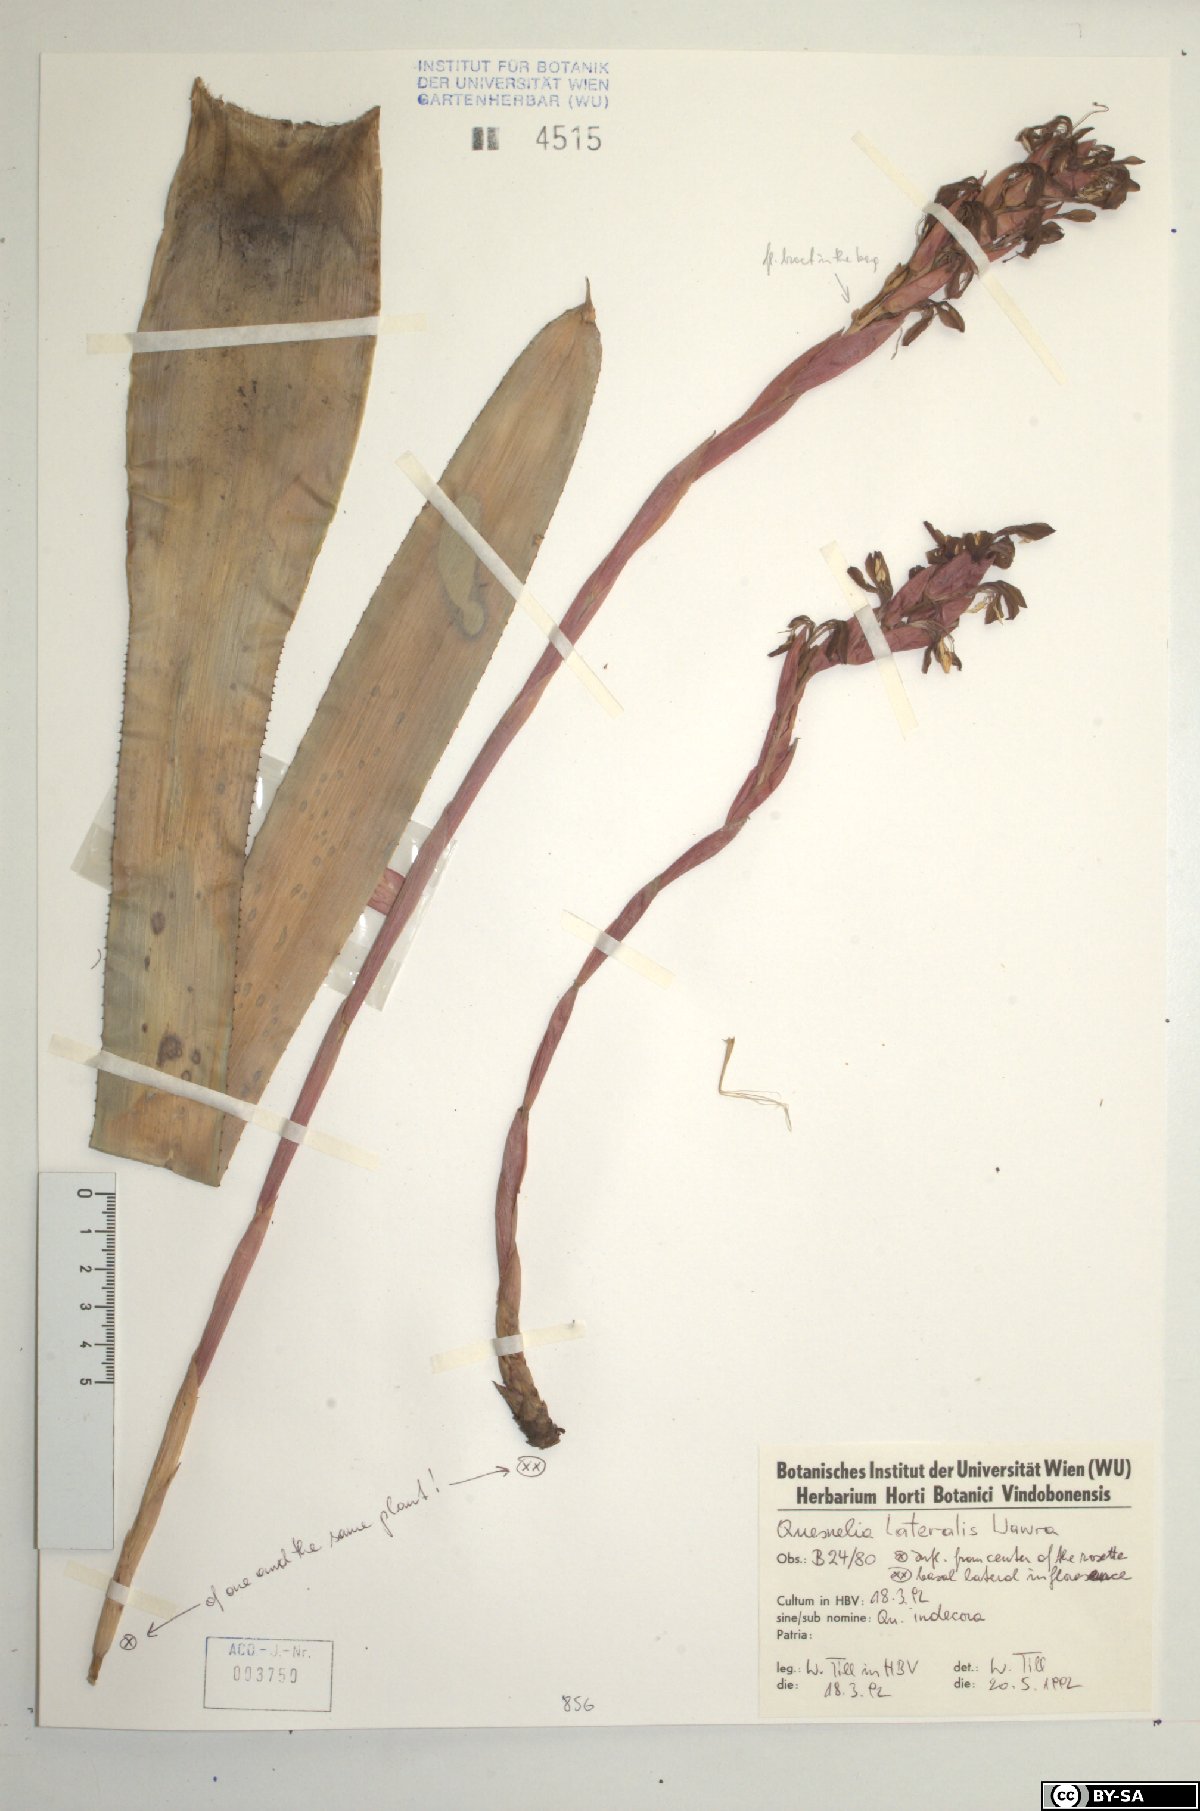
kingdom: Plantae
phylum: Tracheophyta
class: Liliopsida
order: Poales
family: Bromeliaceae
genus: Quesnelia
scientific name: Quesnelia lateralis
